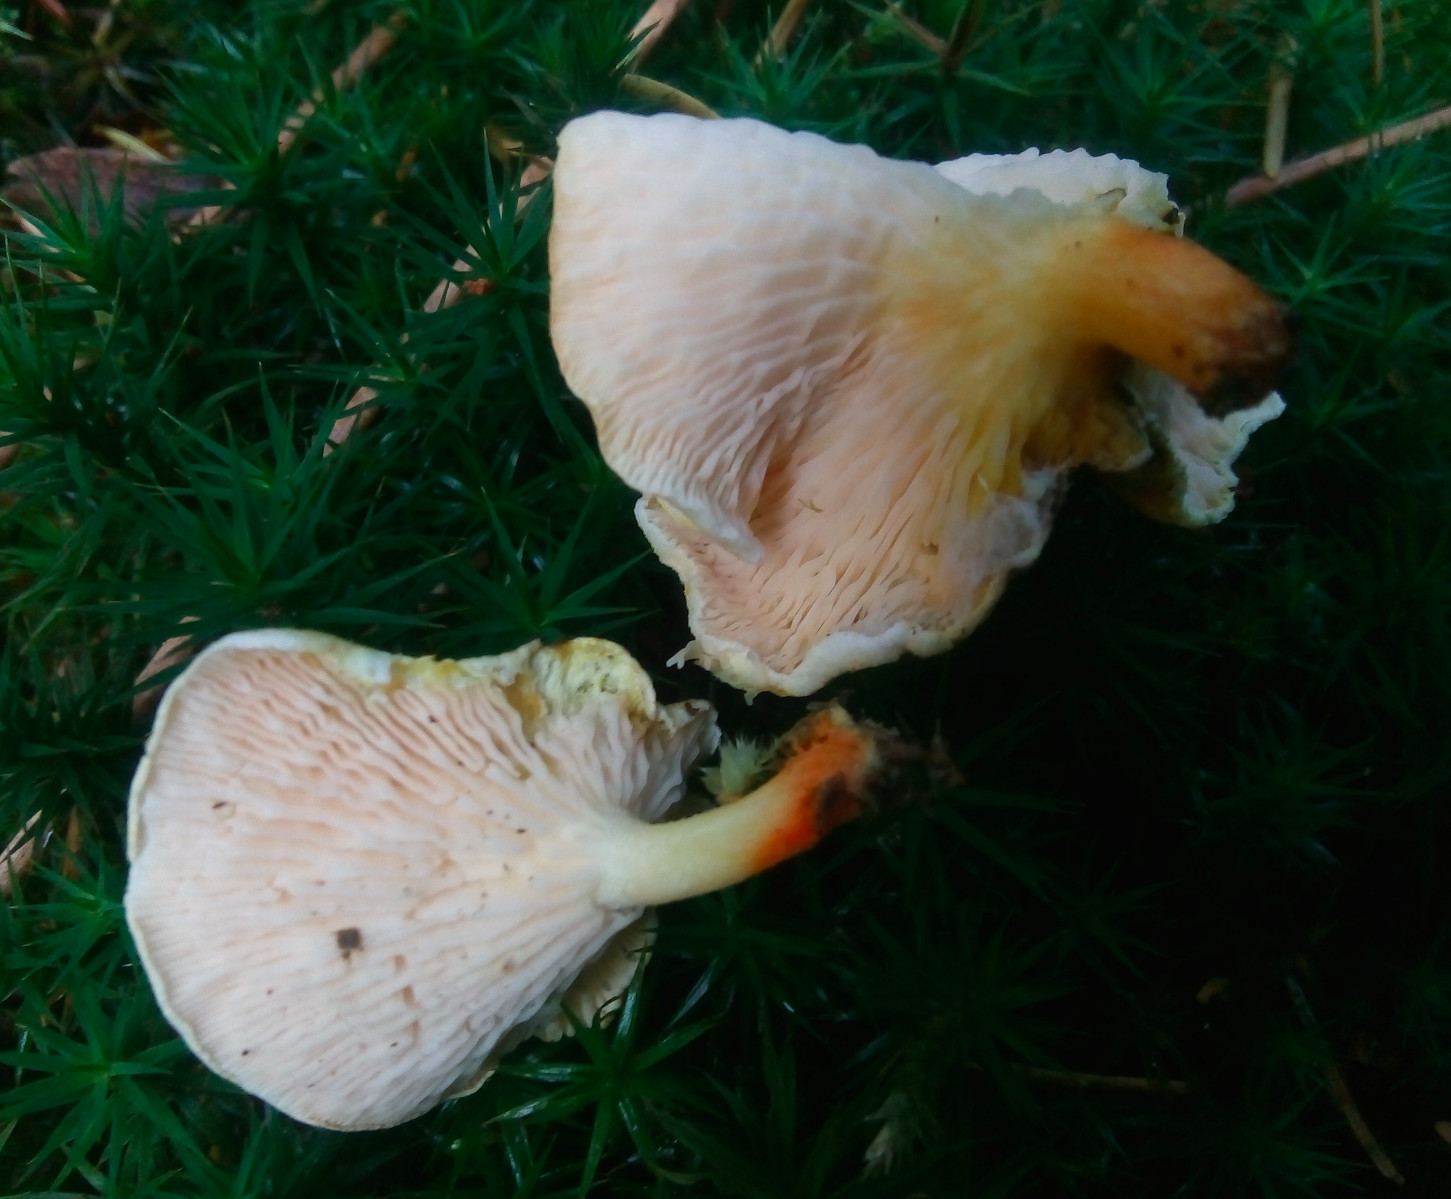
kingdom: Fungi
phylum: Basidiomycota
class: Agaricomycetes
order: Boletales
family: Hygrophoropsidaceae
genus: Hygrophoropsis
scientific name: Hygrophoropsis
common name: orangekantarel
